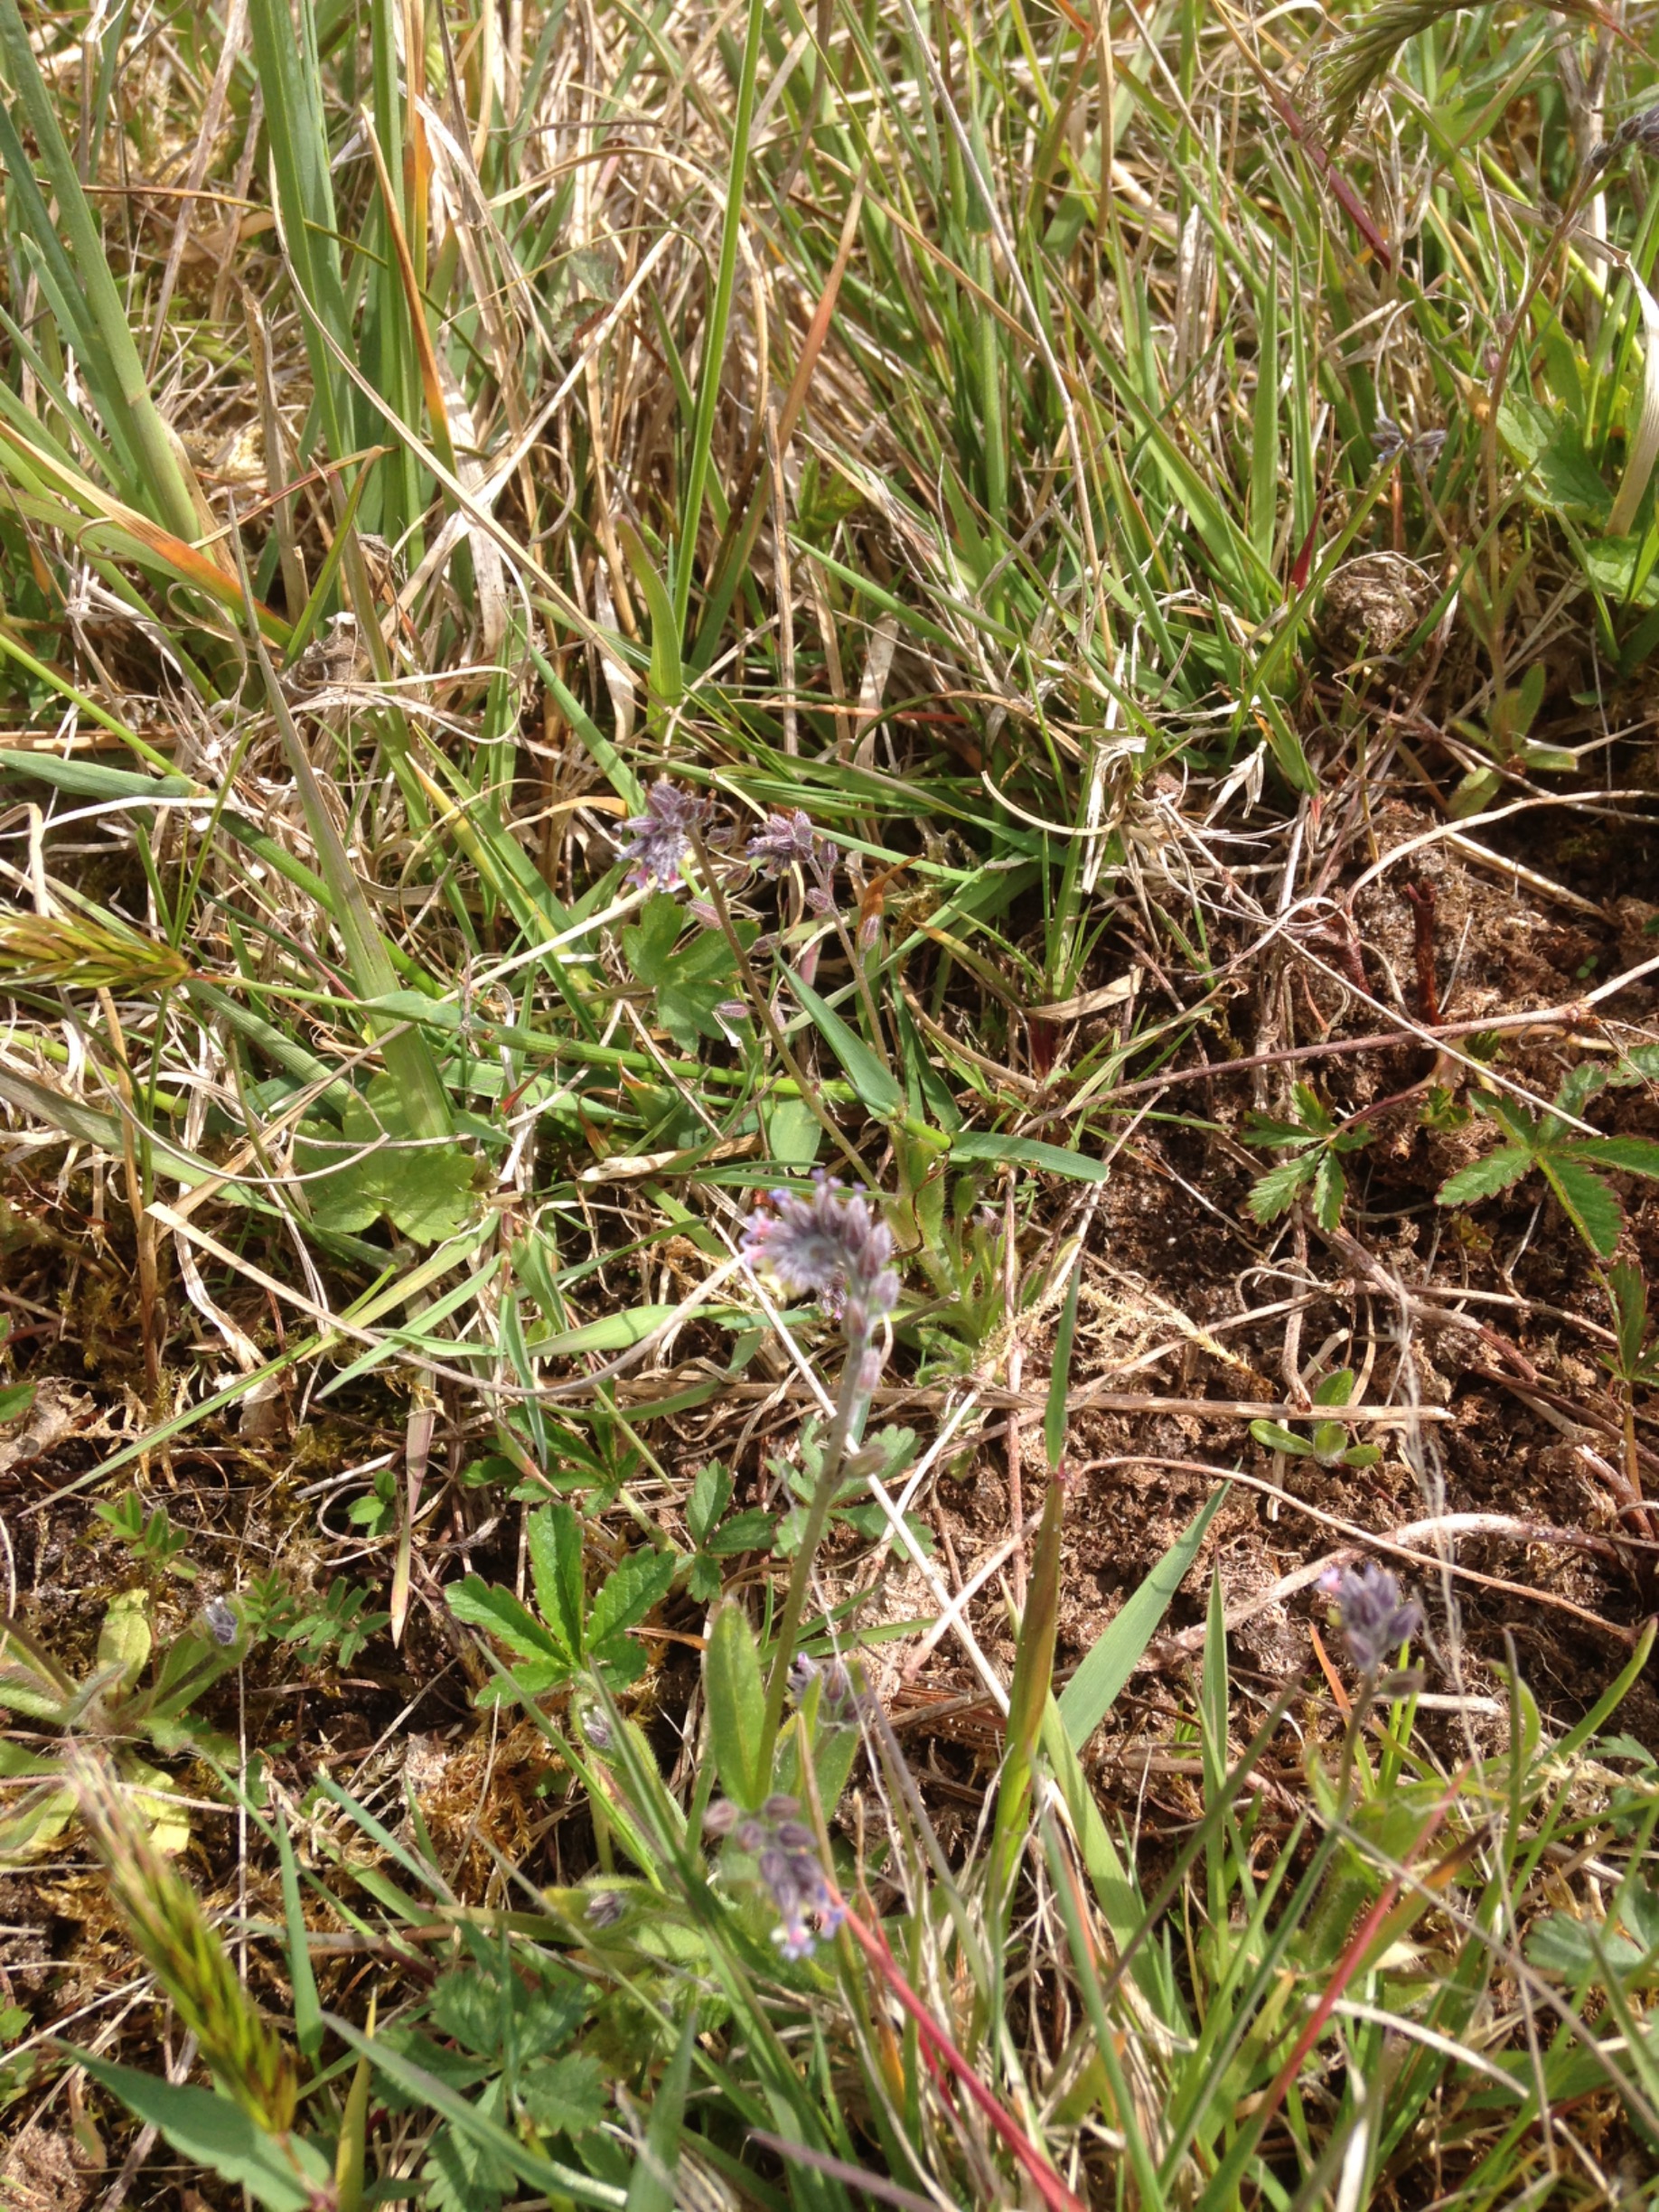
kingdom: Plantae
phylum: Tracheophyta
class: Magnoliopsida
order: Boraginales
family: Boraginaceae
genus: Myosotis
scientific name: Myosotis discolor
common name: Forskelligfarvet forglemmigej
